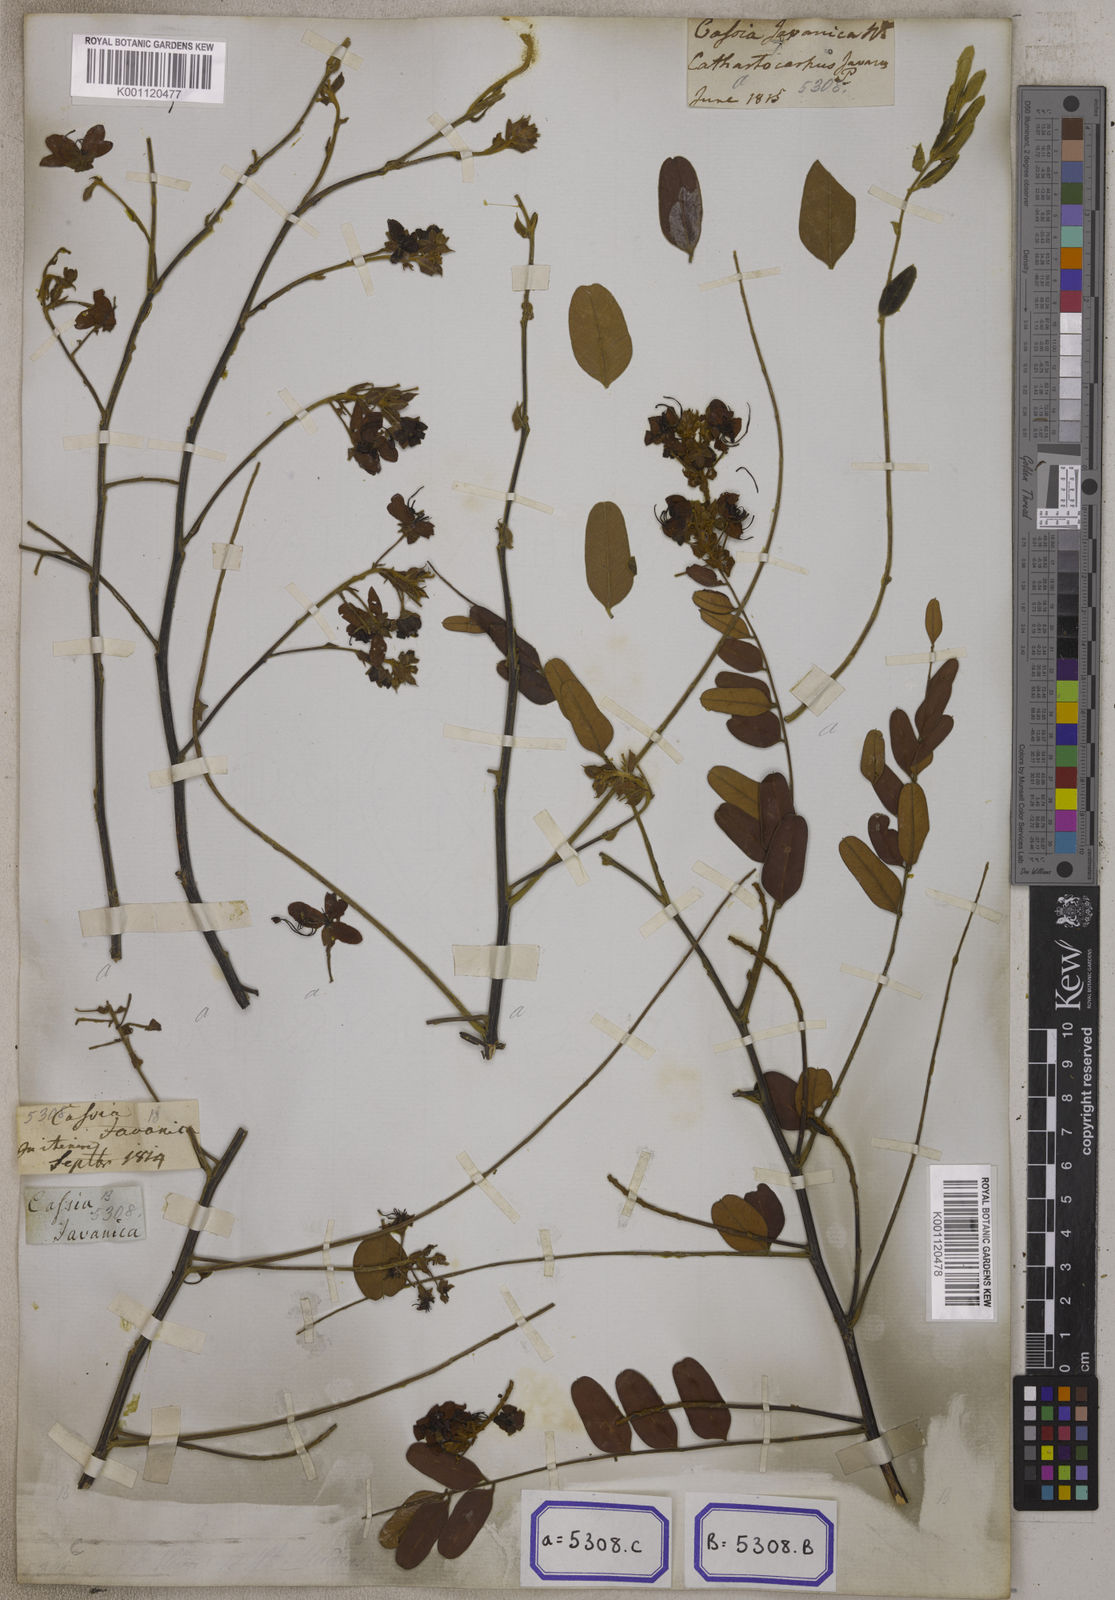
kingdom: Plantae
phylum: Tracheophyta
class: Magnoliopsida
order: Fabales
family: Fabaceae
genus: Cassia
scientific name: Cassia roxburghii
